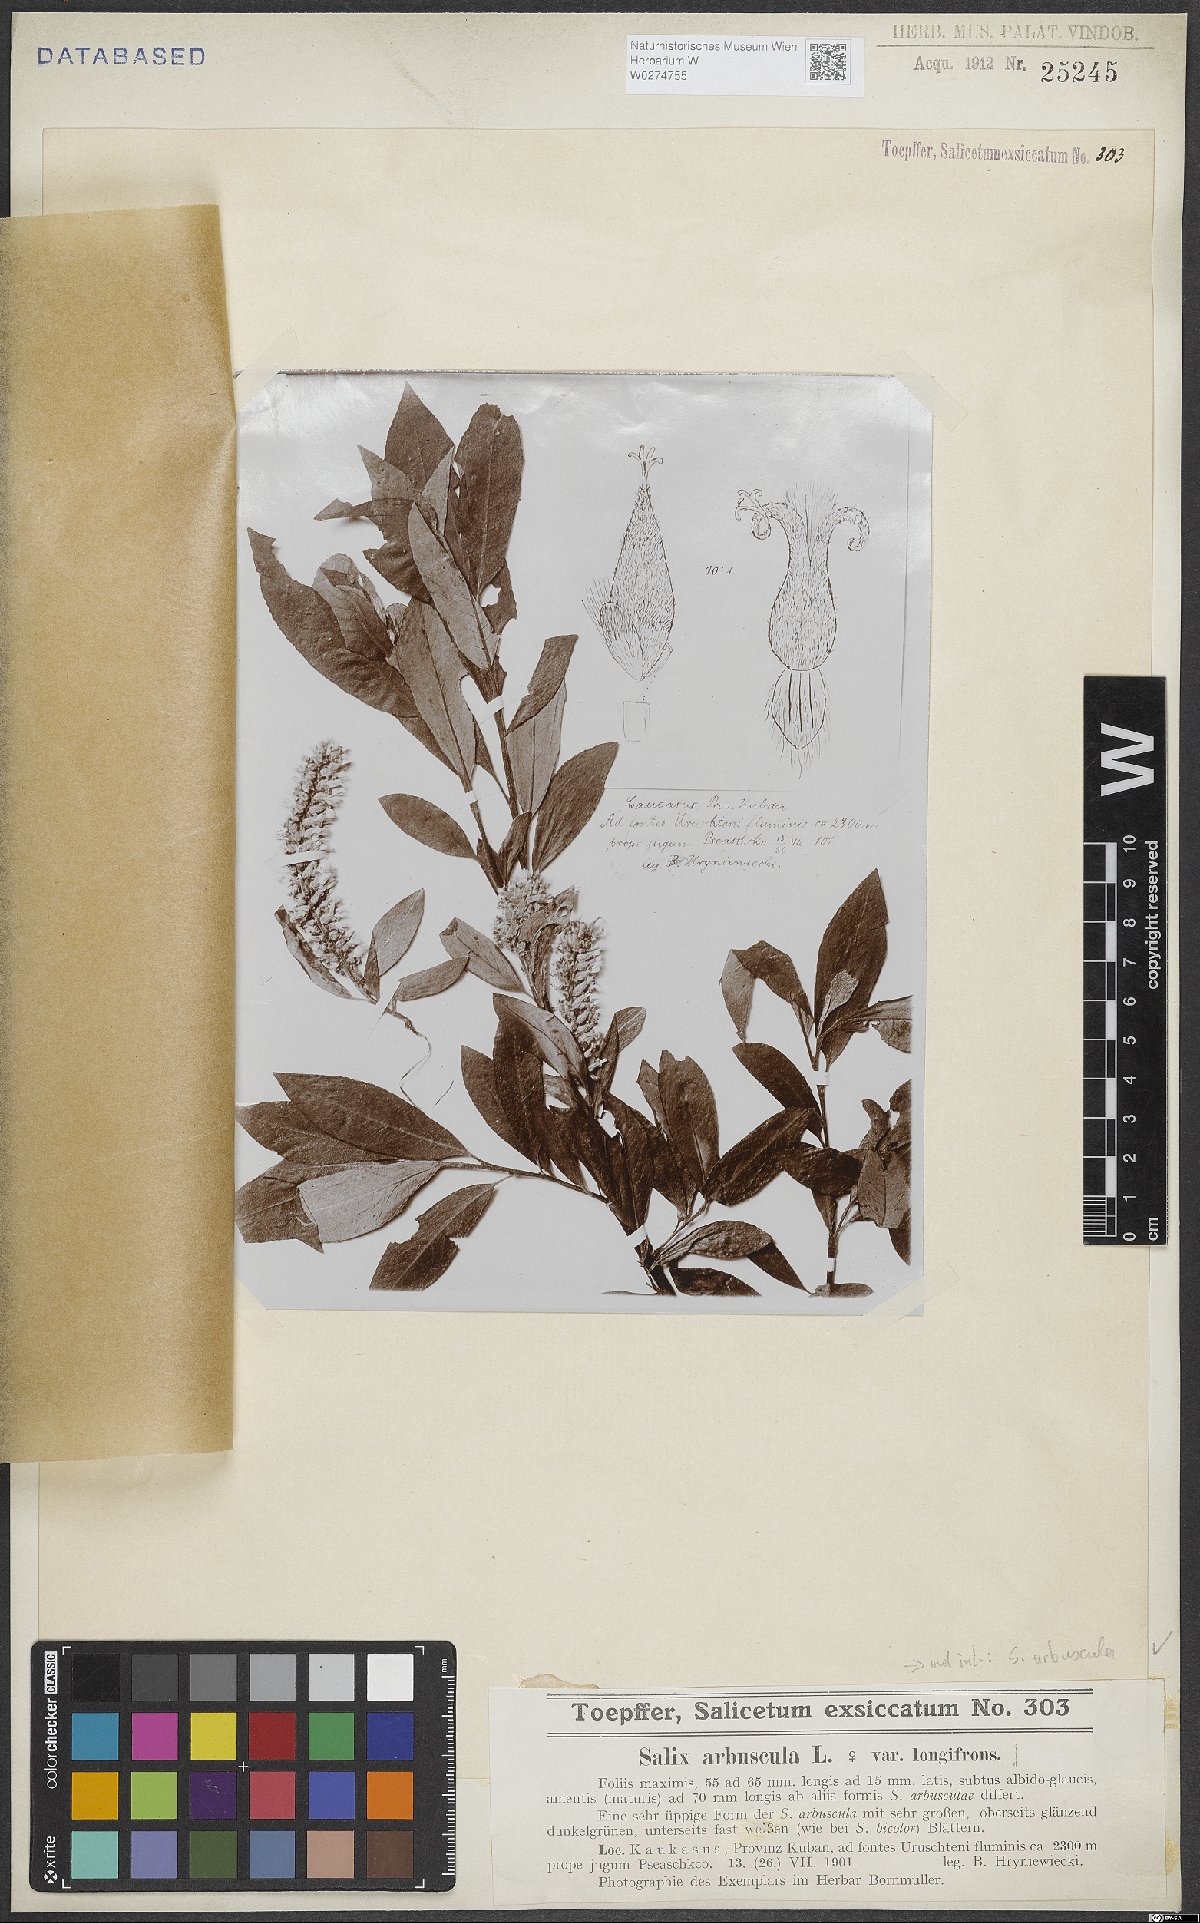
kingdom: Plantae
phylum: Tracheophyta
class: Magnoliopsida
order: Malpighiales
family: Salicaceae
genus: Salix
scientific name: Salix arbuscula
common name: Mountain willow
